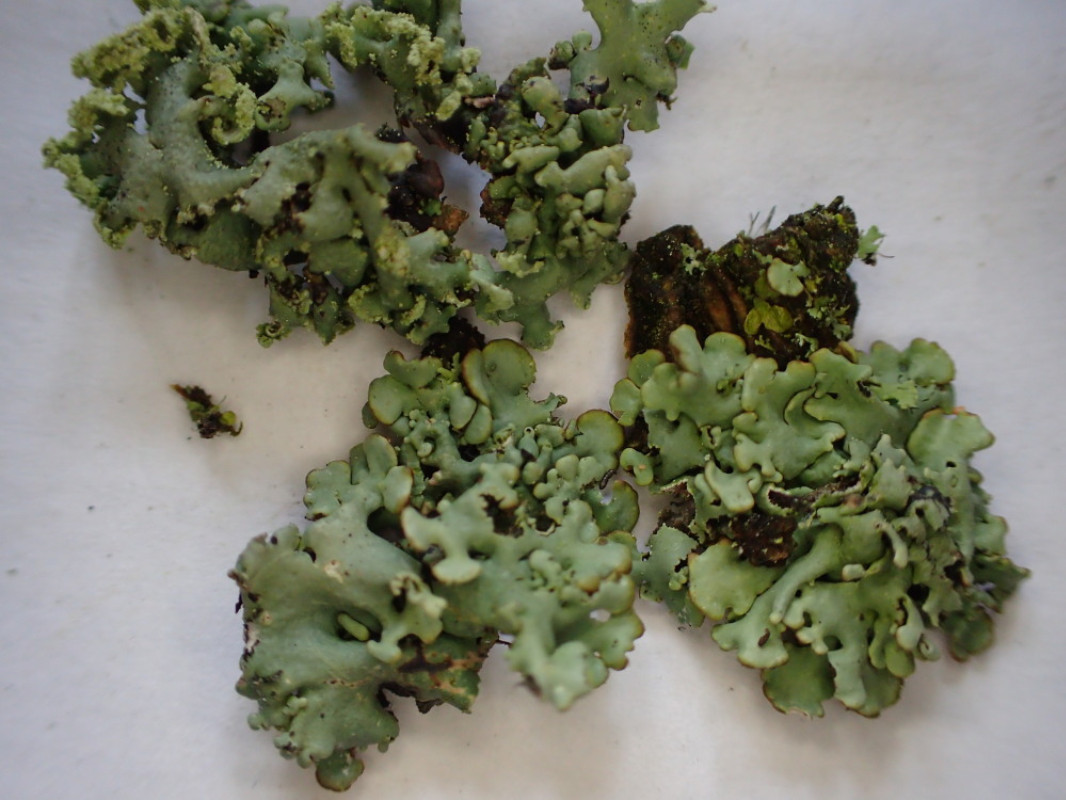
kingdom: Fungi
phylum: Ascomycota
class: Lecanoromycetes
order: Lecanorales
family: Parmeliaceae
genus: Hypogymnia
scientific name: Hypogymnia physodes
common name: almindelig kvistlav
